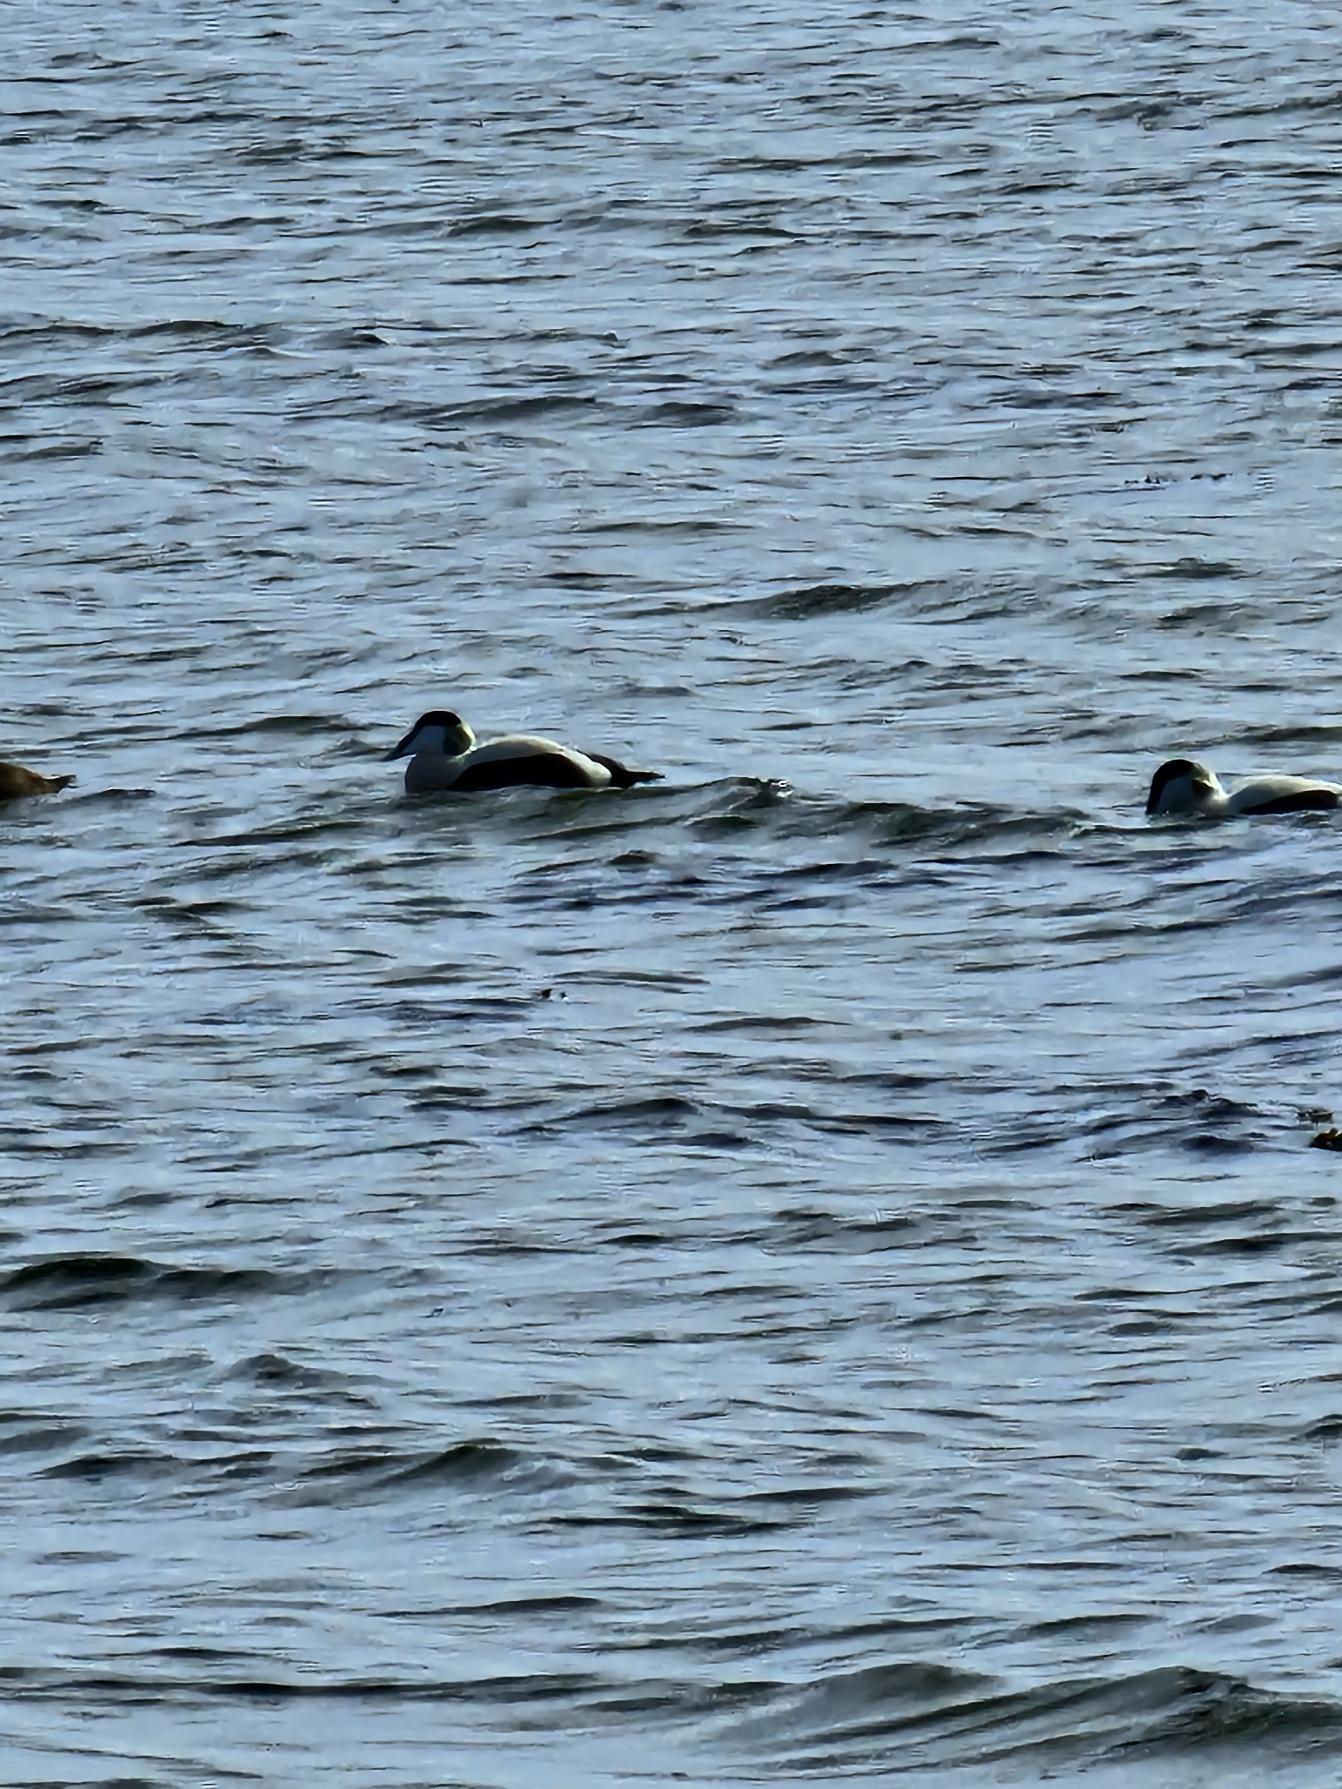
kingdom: Animalia
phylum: Chordata
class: Aves
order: Anseriformes
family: Anatidae
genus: Somateria
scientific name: Somateria mollissima
